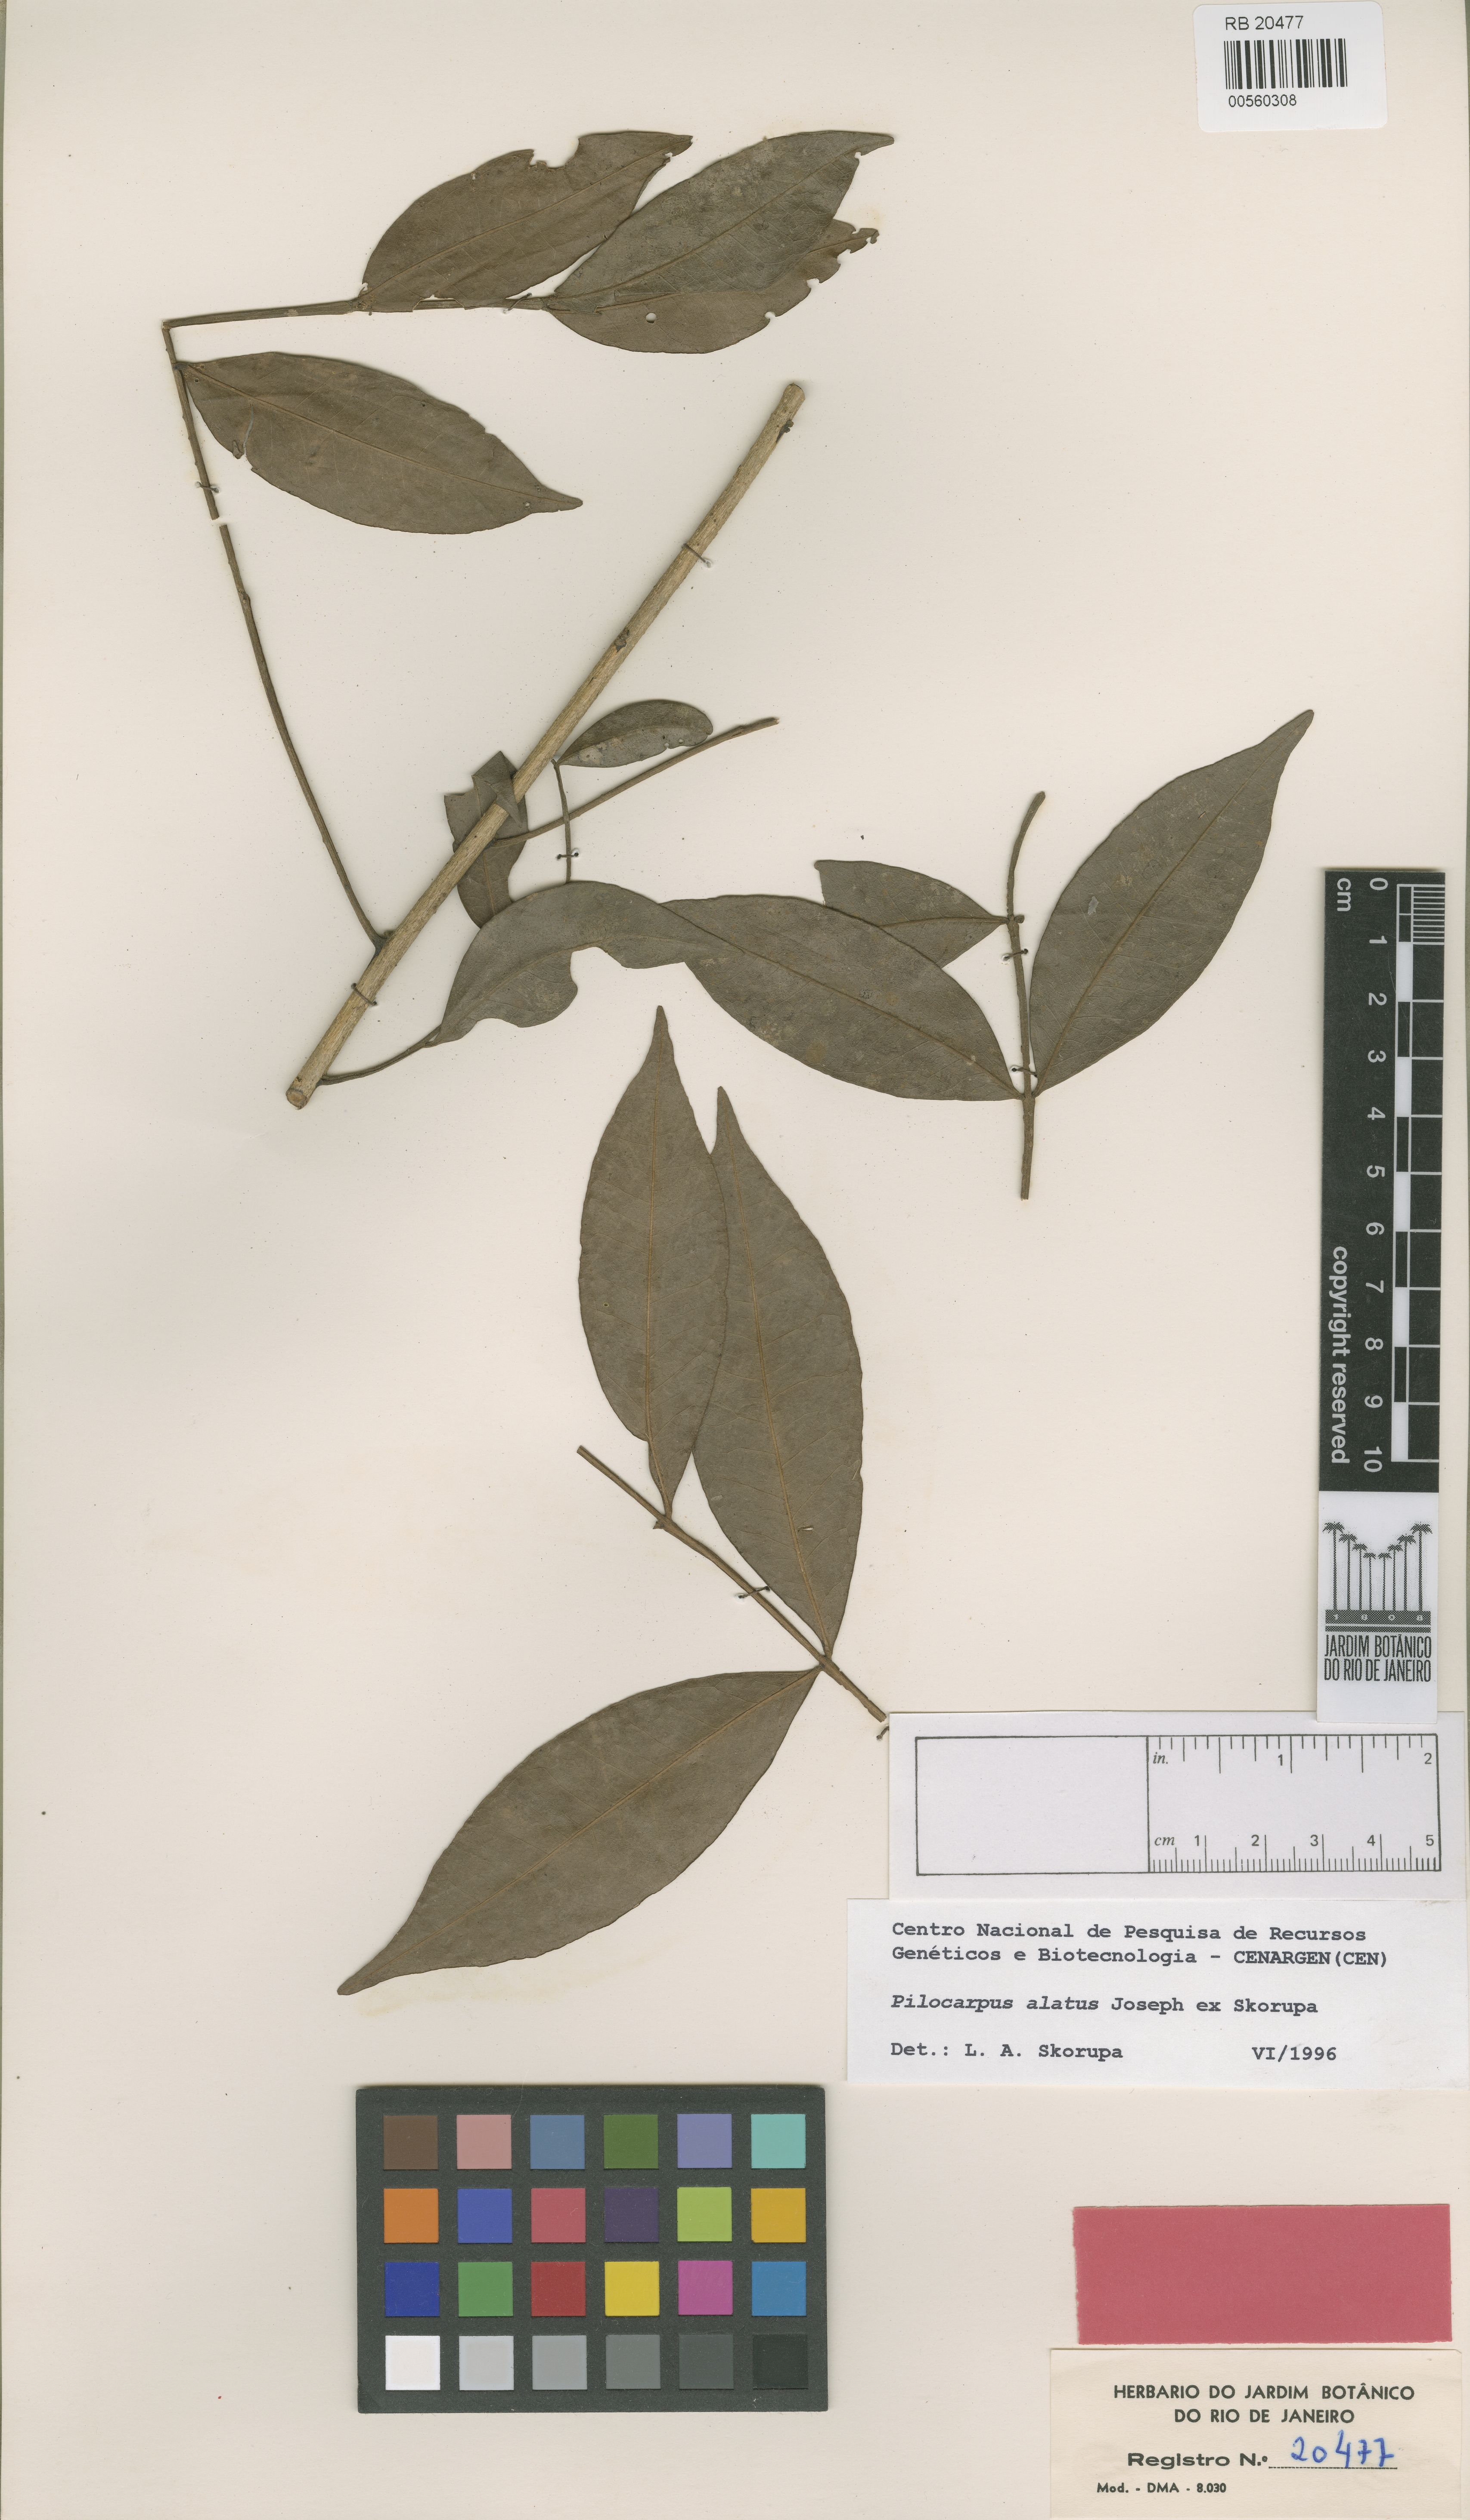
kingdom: Plantae
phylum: Tracheophyta
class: Magnoliopsida
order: Sapindales
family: Rutaceae
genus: Pilocarpus
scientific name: Pilocarpus alatus
